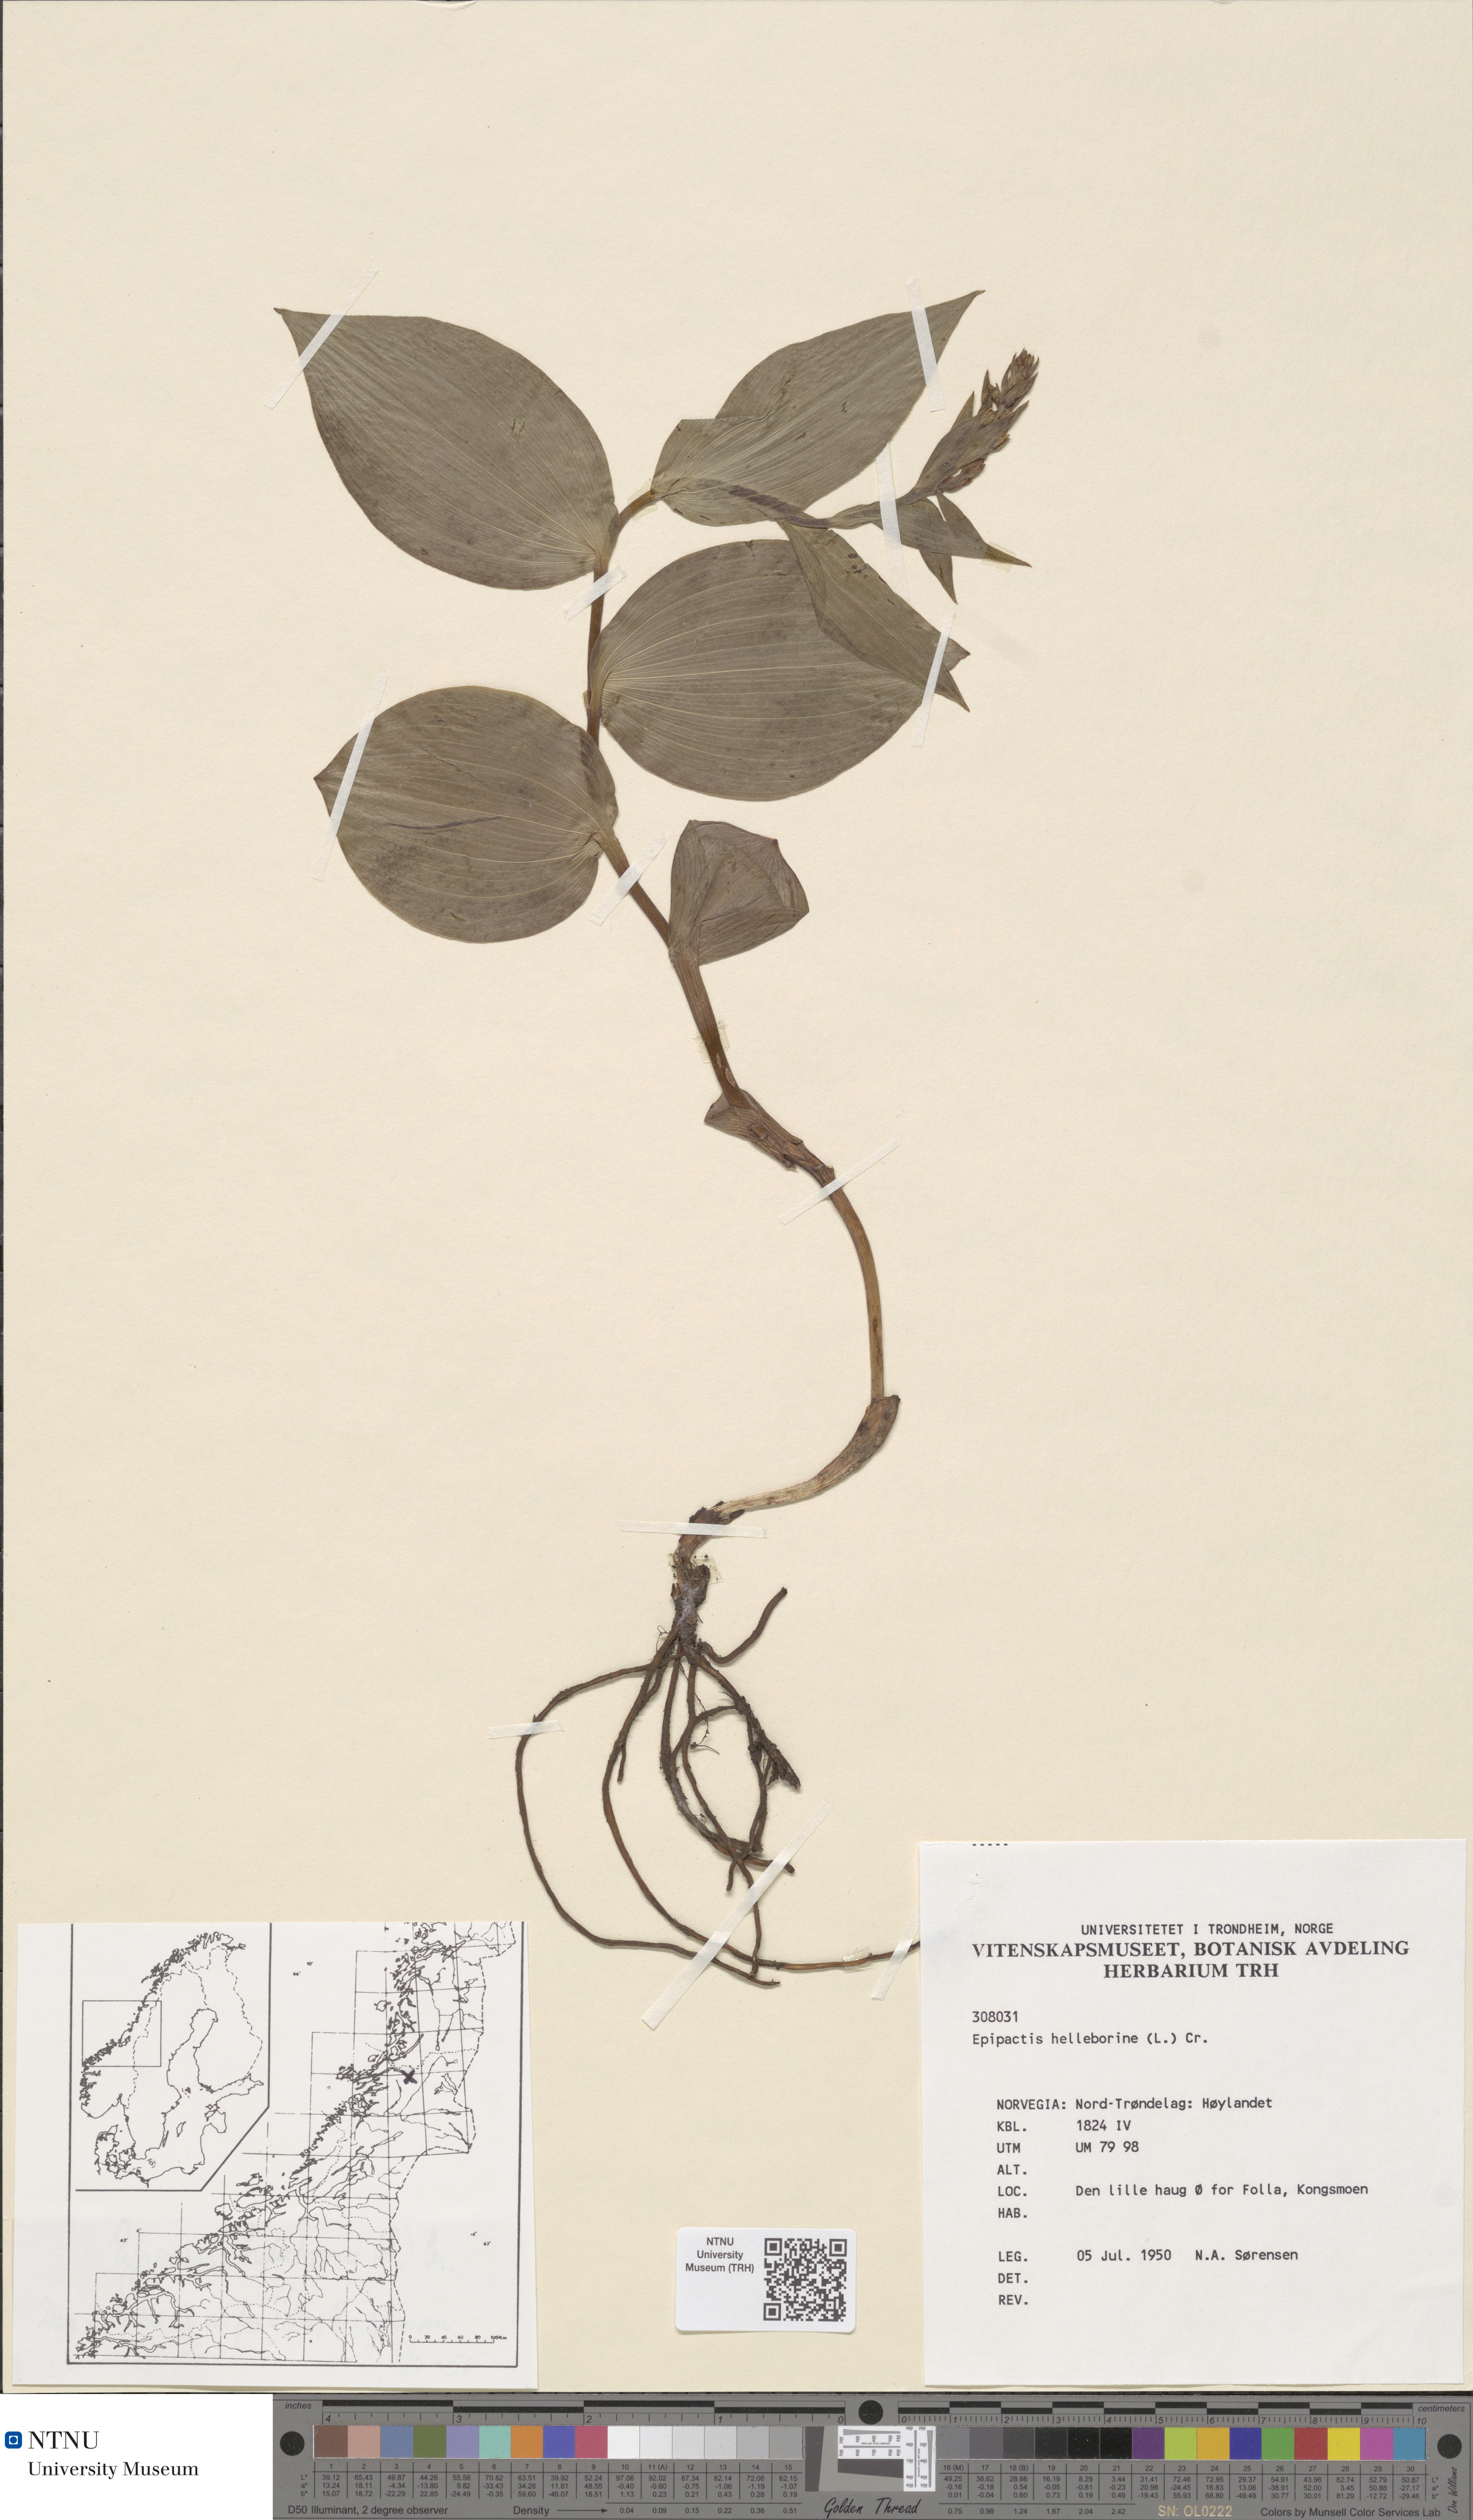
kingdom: Plantae
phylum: Tracheophyta
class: Liliopsida
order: Asparagales
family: Orchidaceae
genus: Epipactis
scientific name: Epipactis helleborine
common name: Broad-leaved helleborine
